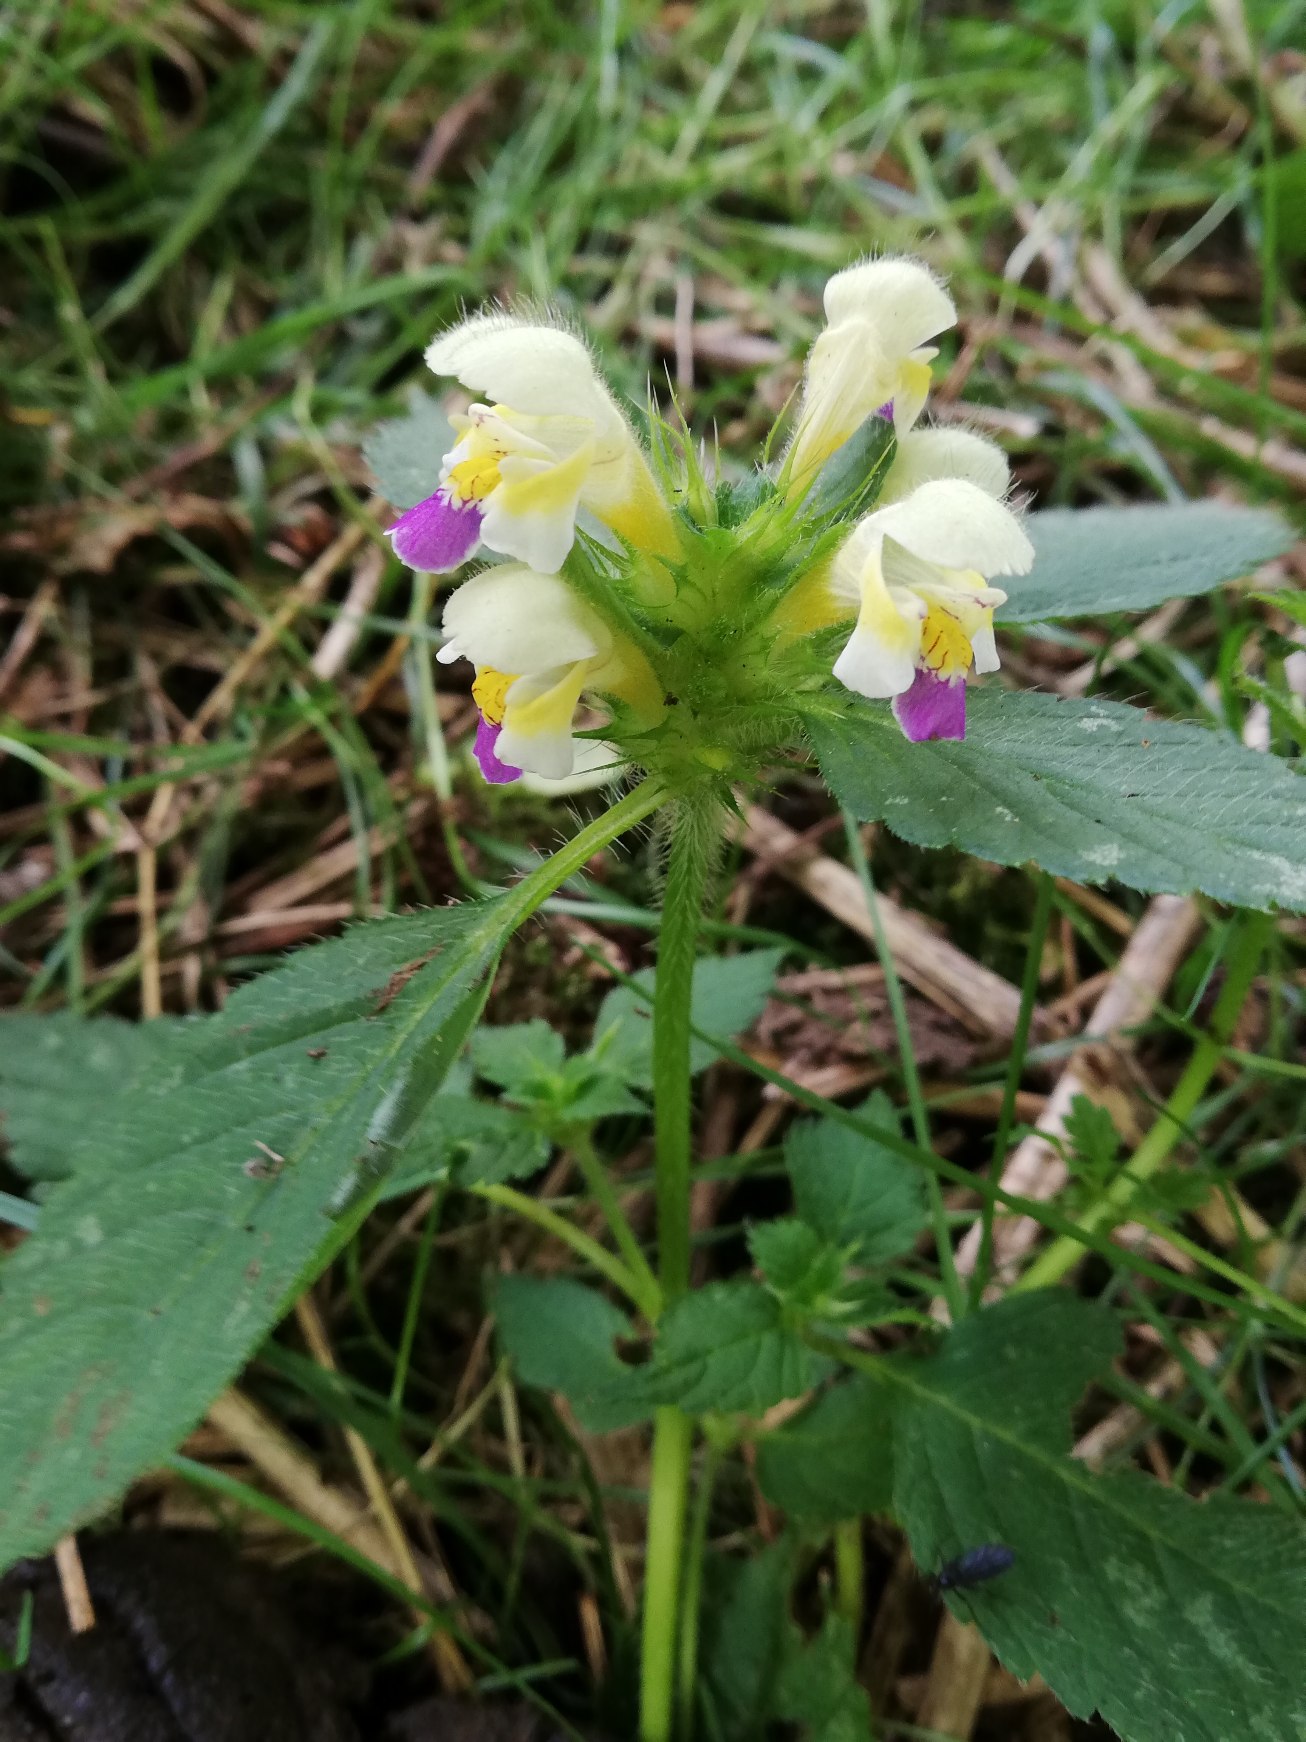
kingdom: Plantae
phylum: Tracheophyta
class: Magnoliopsida
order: Lamiales
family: Lamiaceae
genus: Galeopsis
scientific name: Galeopsis speciosa
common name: Hamp-hanekro
